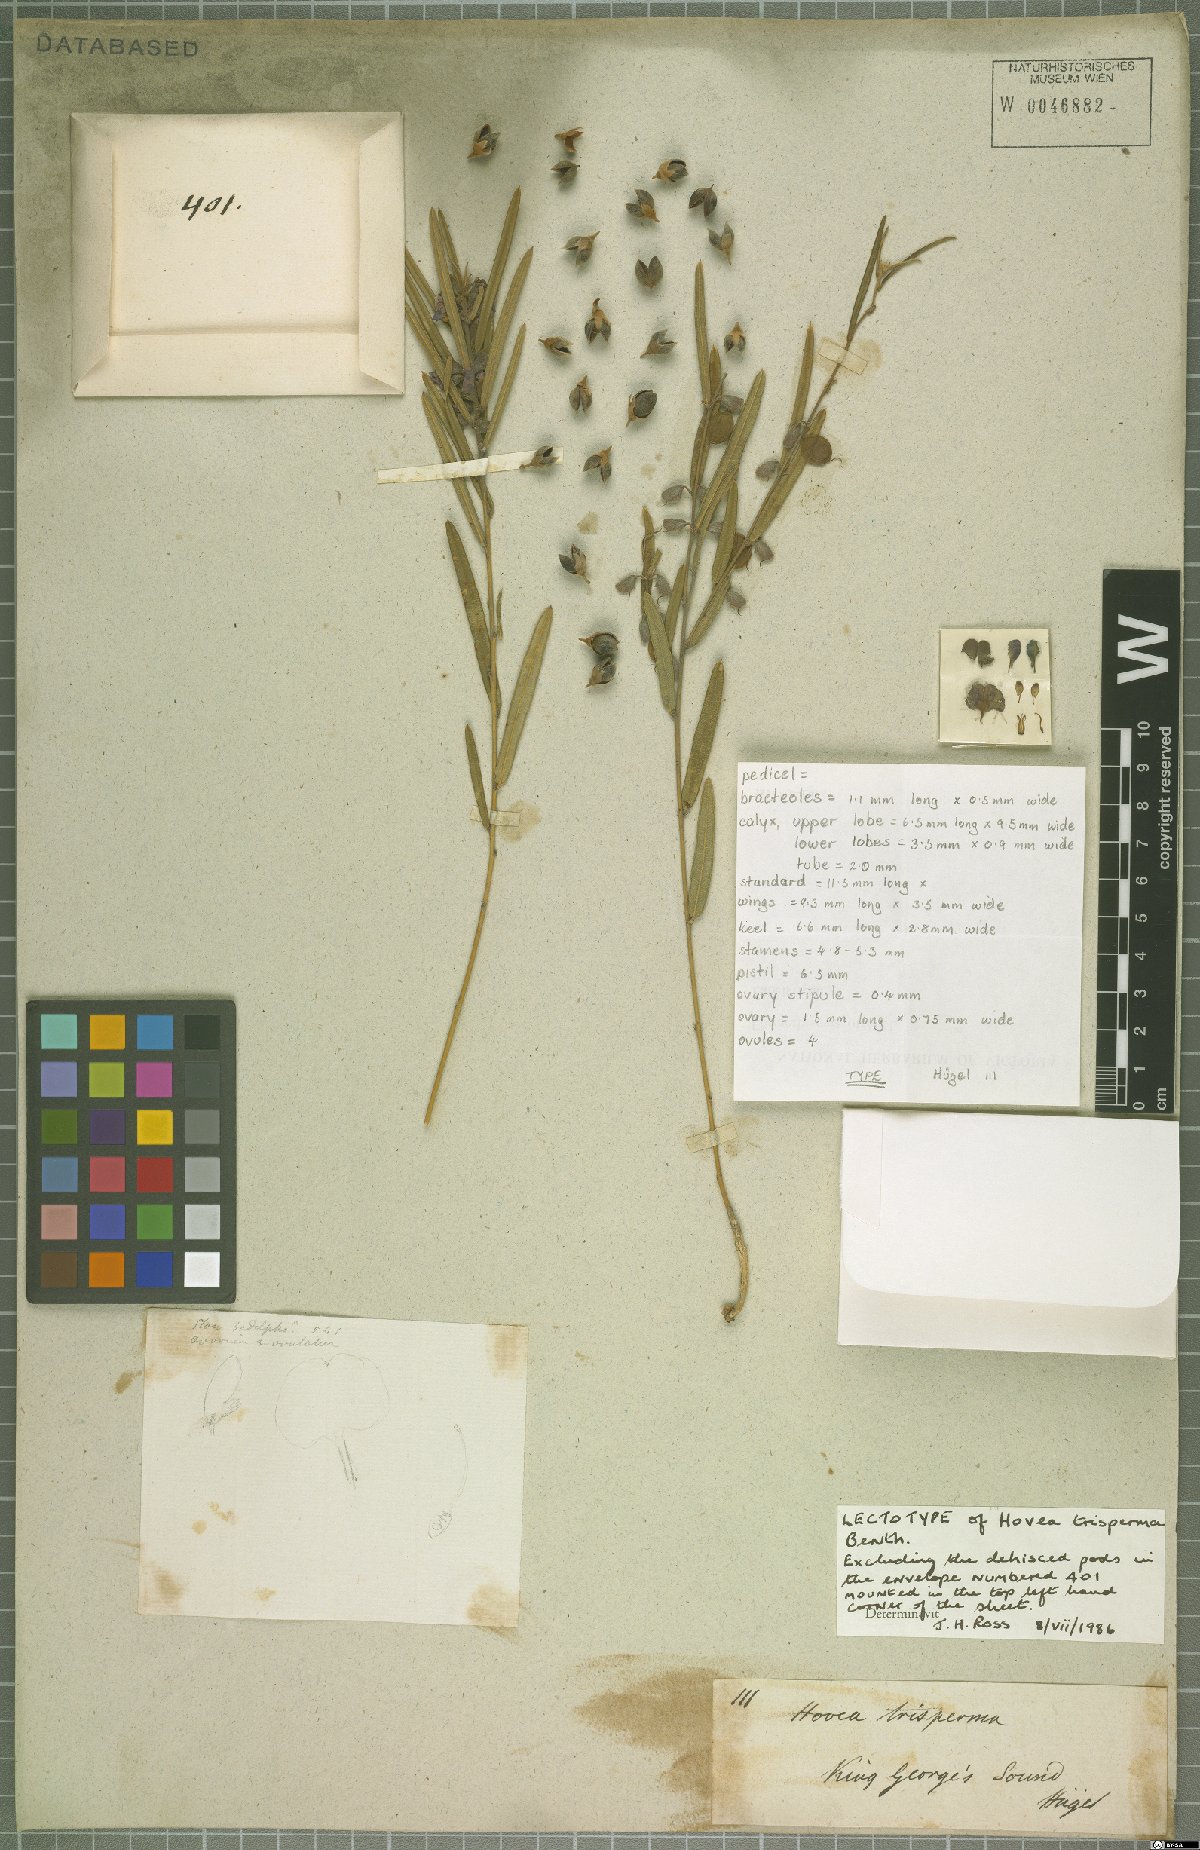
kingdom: Plantae
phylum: Tracheophyta
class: Magnoliopsida
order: Fabales
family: Fabaceae
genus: Hovea
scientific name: Hovea trisperma
